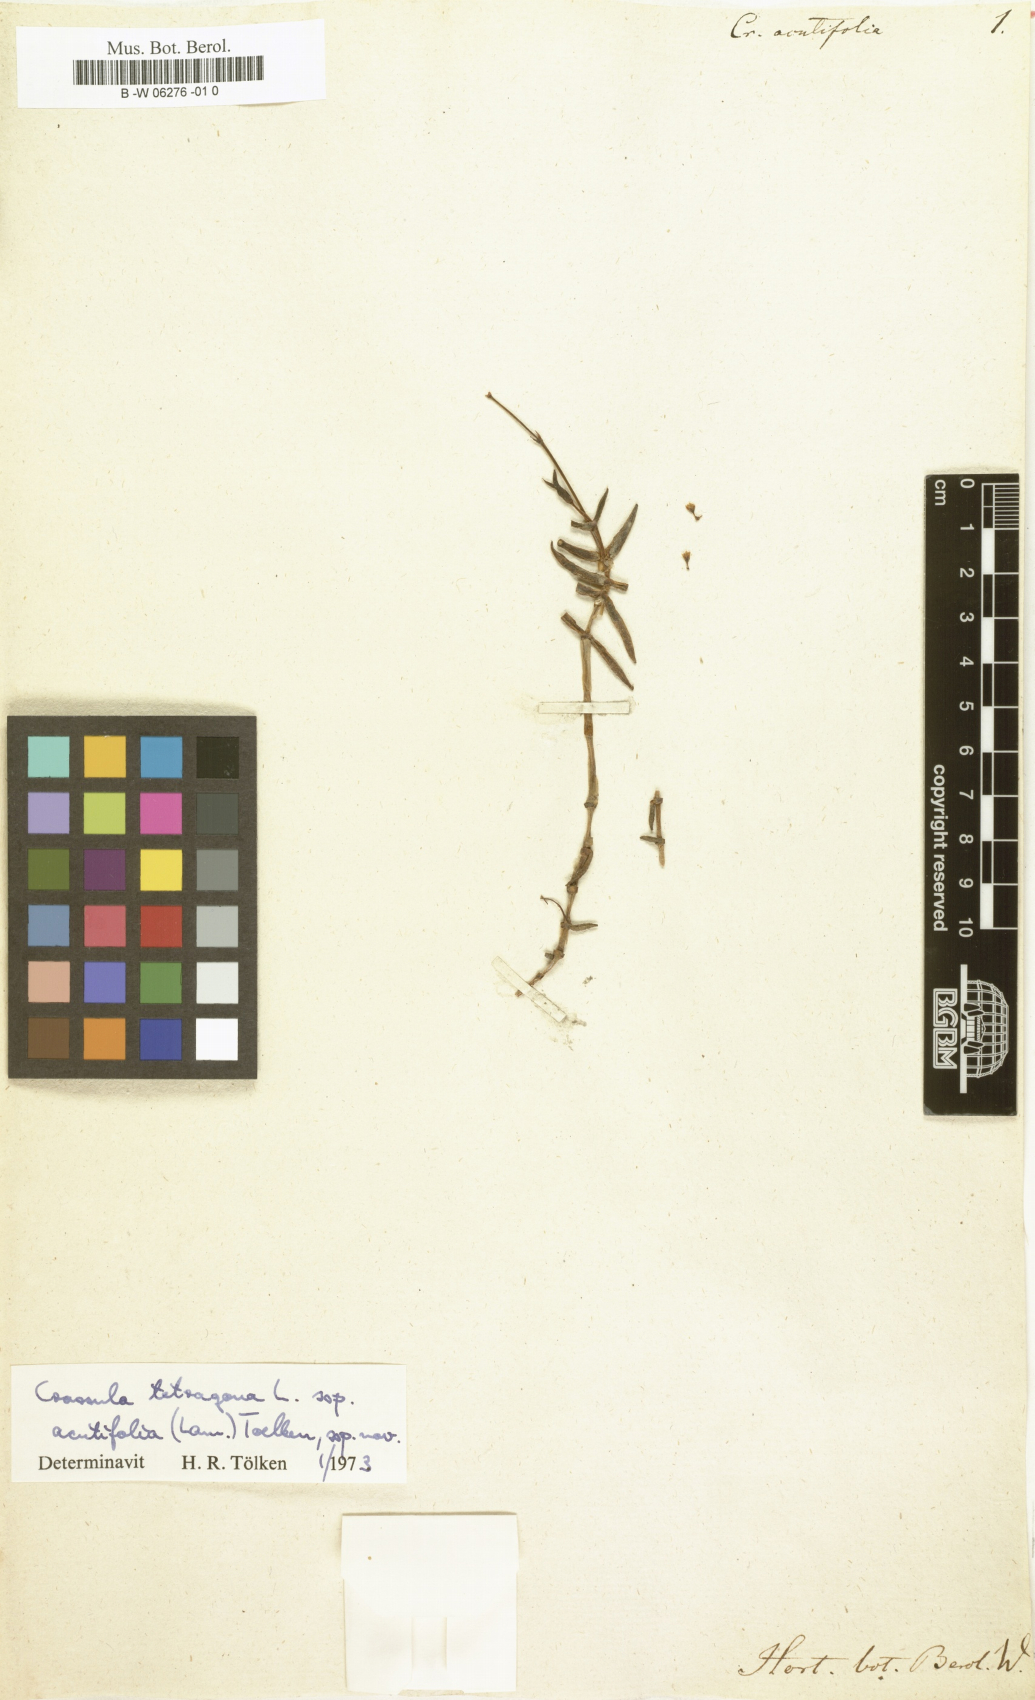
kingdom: Plantae
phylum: Tracheophyta
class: Magnoliopsida
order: Saxifragales
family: Crassulaceae
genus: Crassula
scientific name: Crassula
